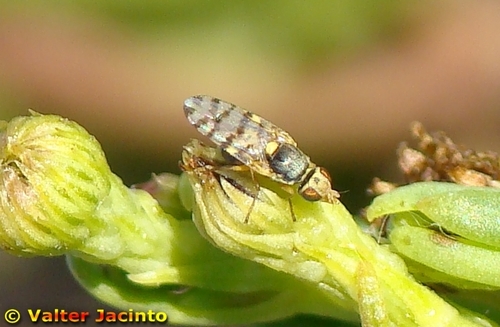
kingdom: Animalia
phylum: Arthropoda
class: Insecta
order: Diptera
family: Tephritidae
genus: Myopites
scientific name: Myopites eximia
